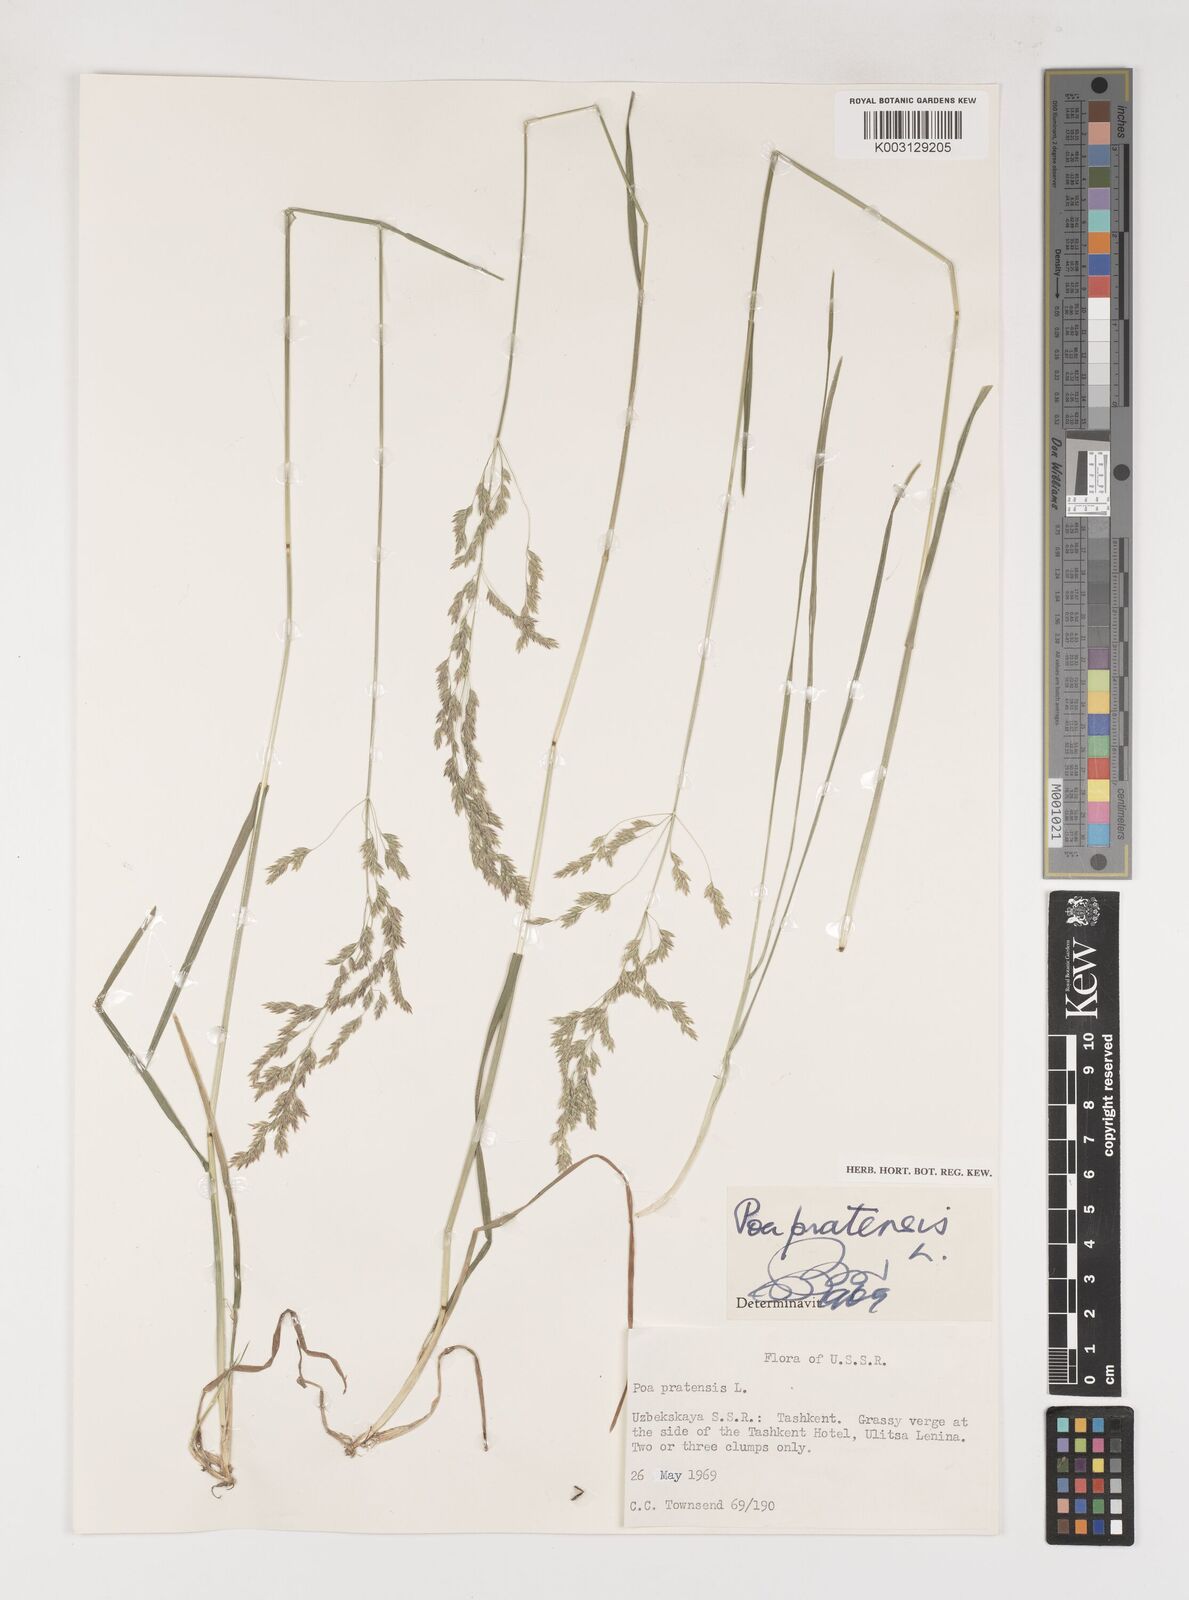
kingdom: Plantae
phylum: Tracheophyta
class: Liliopsida
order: Poales
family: Poaceae
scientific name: Poaceae
